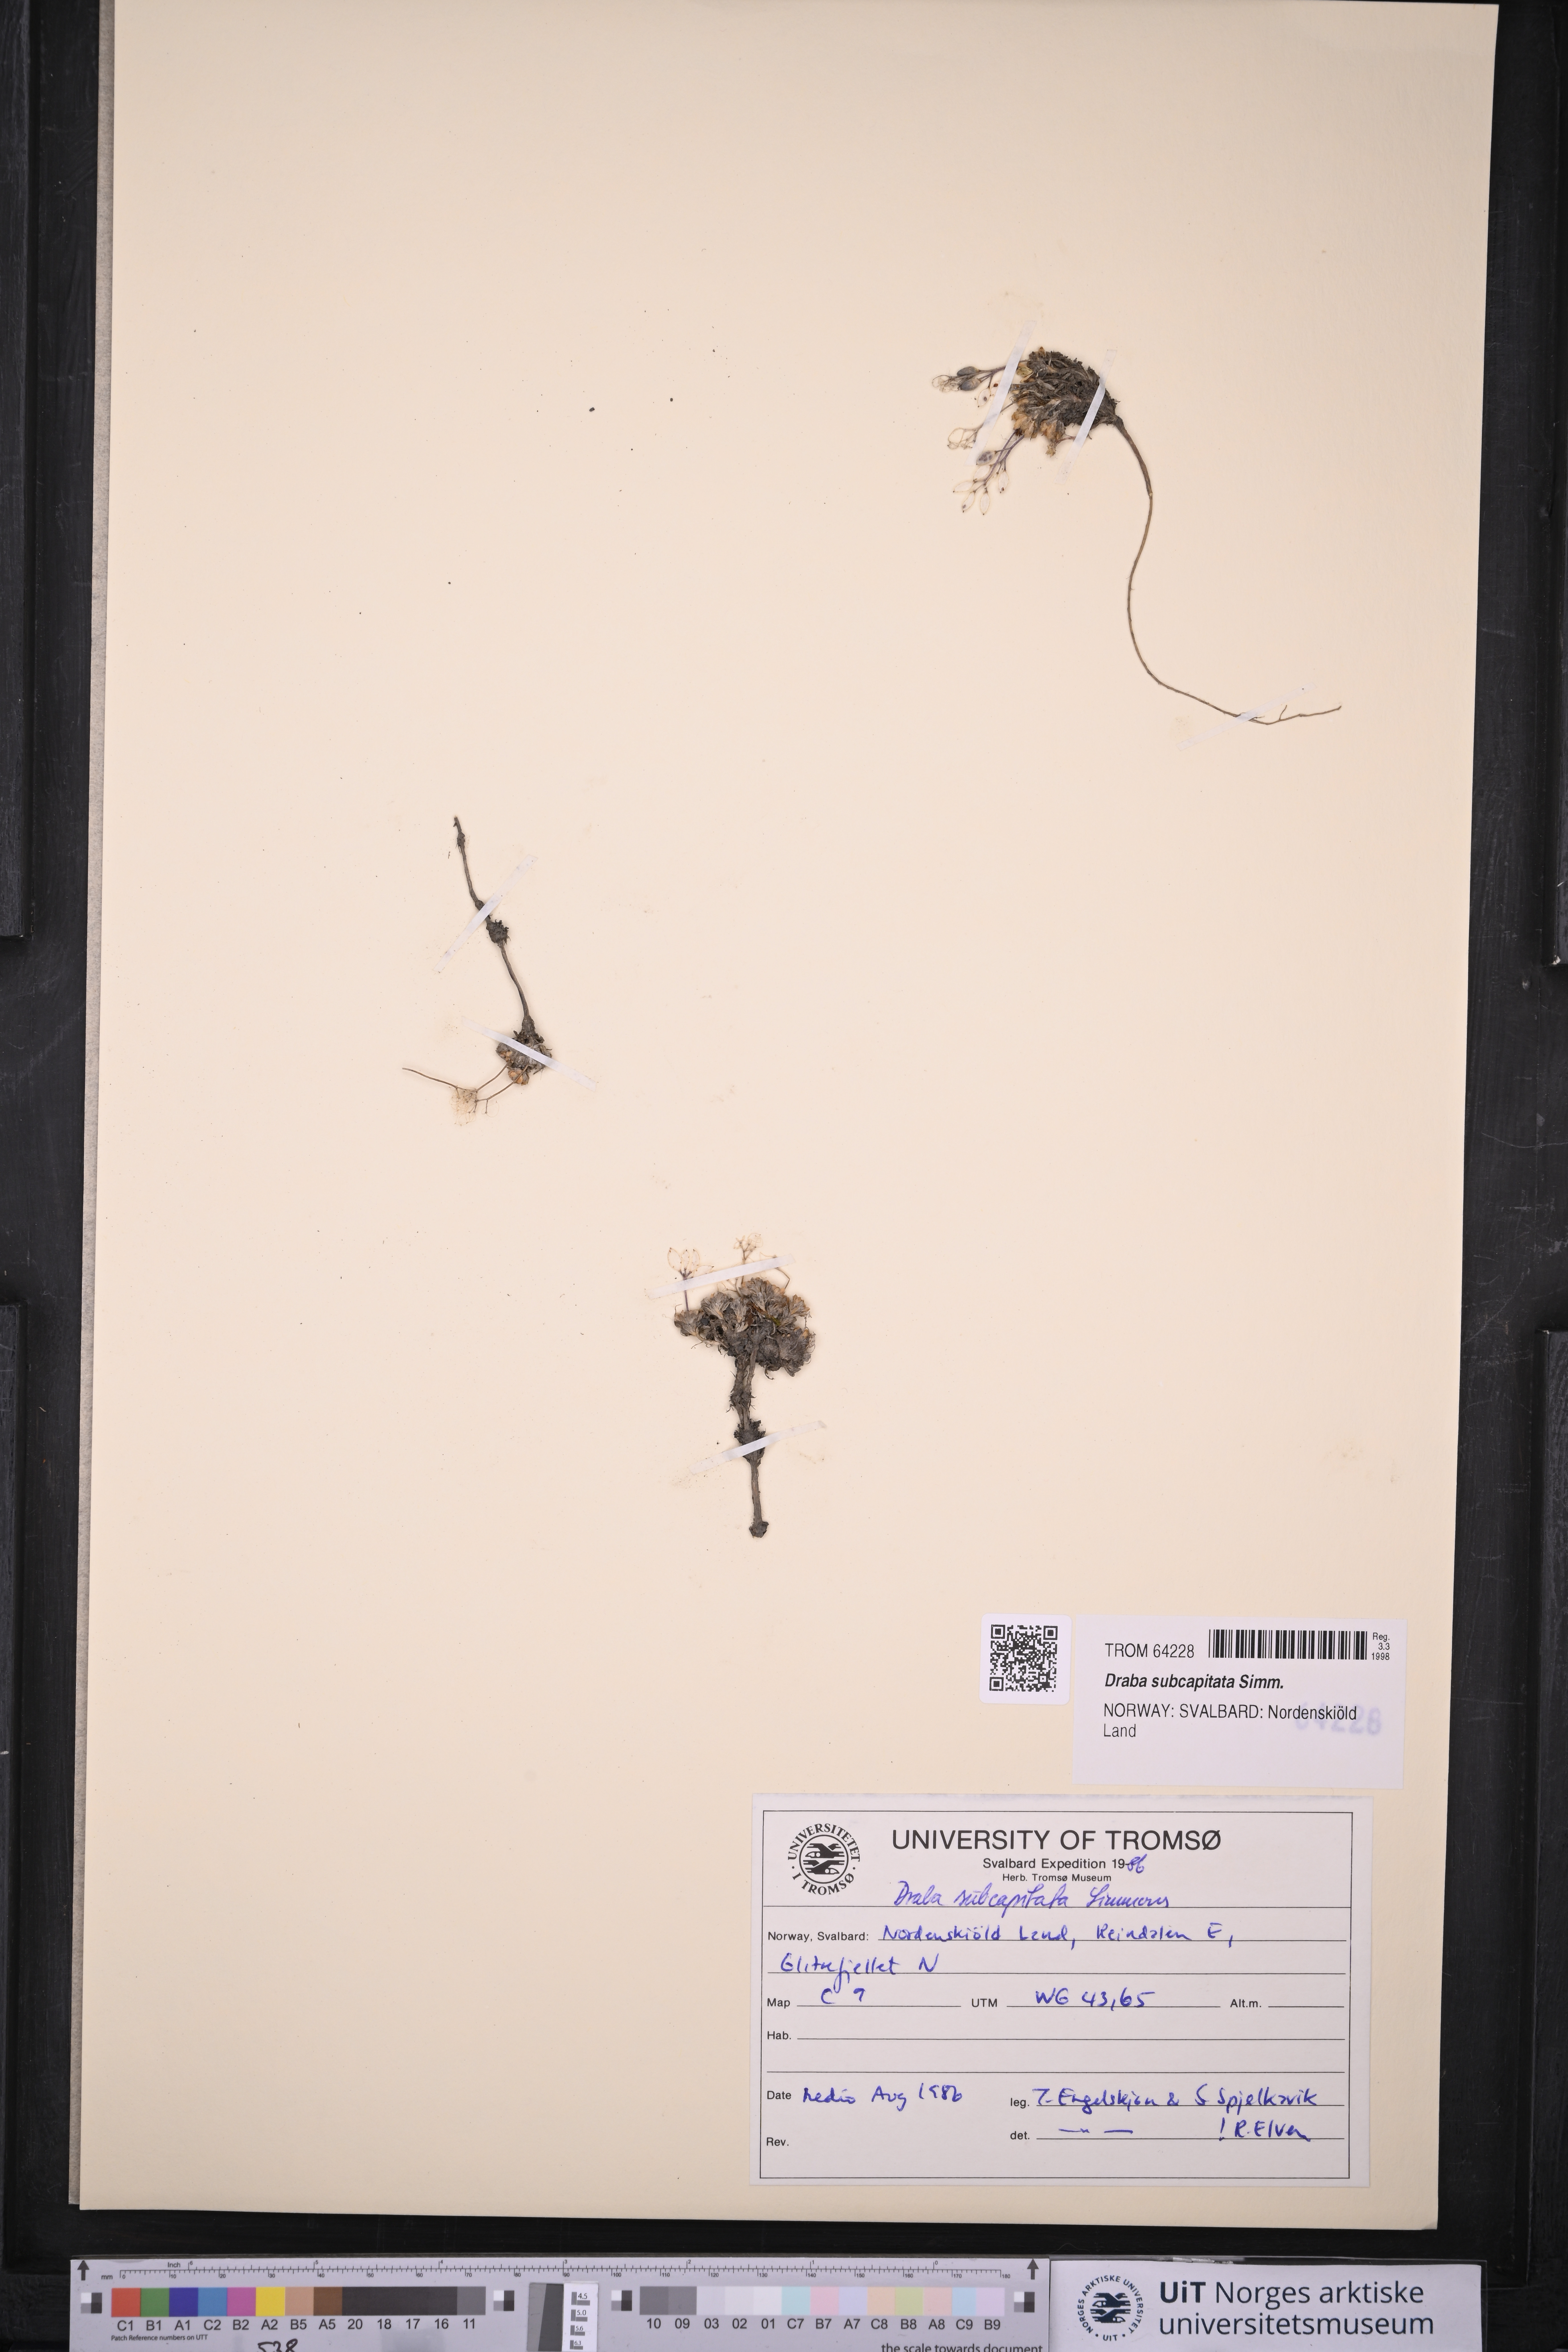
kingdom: Plantae
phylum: Tracheophyta
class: Magnoliopsida
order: Brassicales
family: Brassicaceae
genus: Draba
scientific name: Draba subcapitata
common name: Ellesmere island draba
